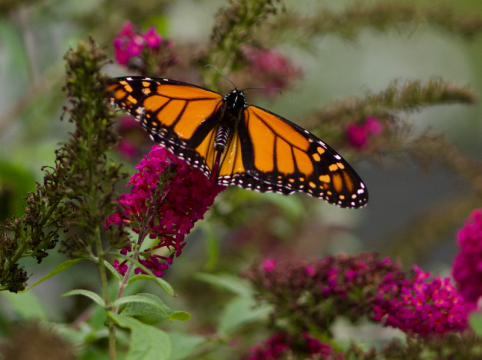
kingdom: Animalia
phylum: Arthropoda
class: Insecta
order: Lepidoptera
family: Nymphalidae
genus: Danaus
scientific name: Danaus plexippus
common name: Monarch
